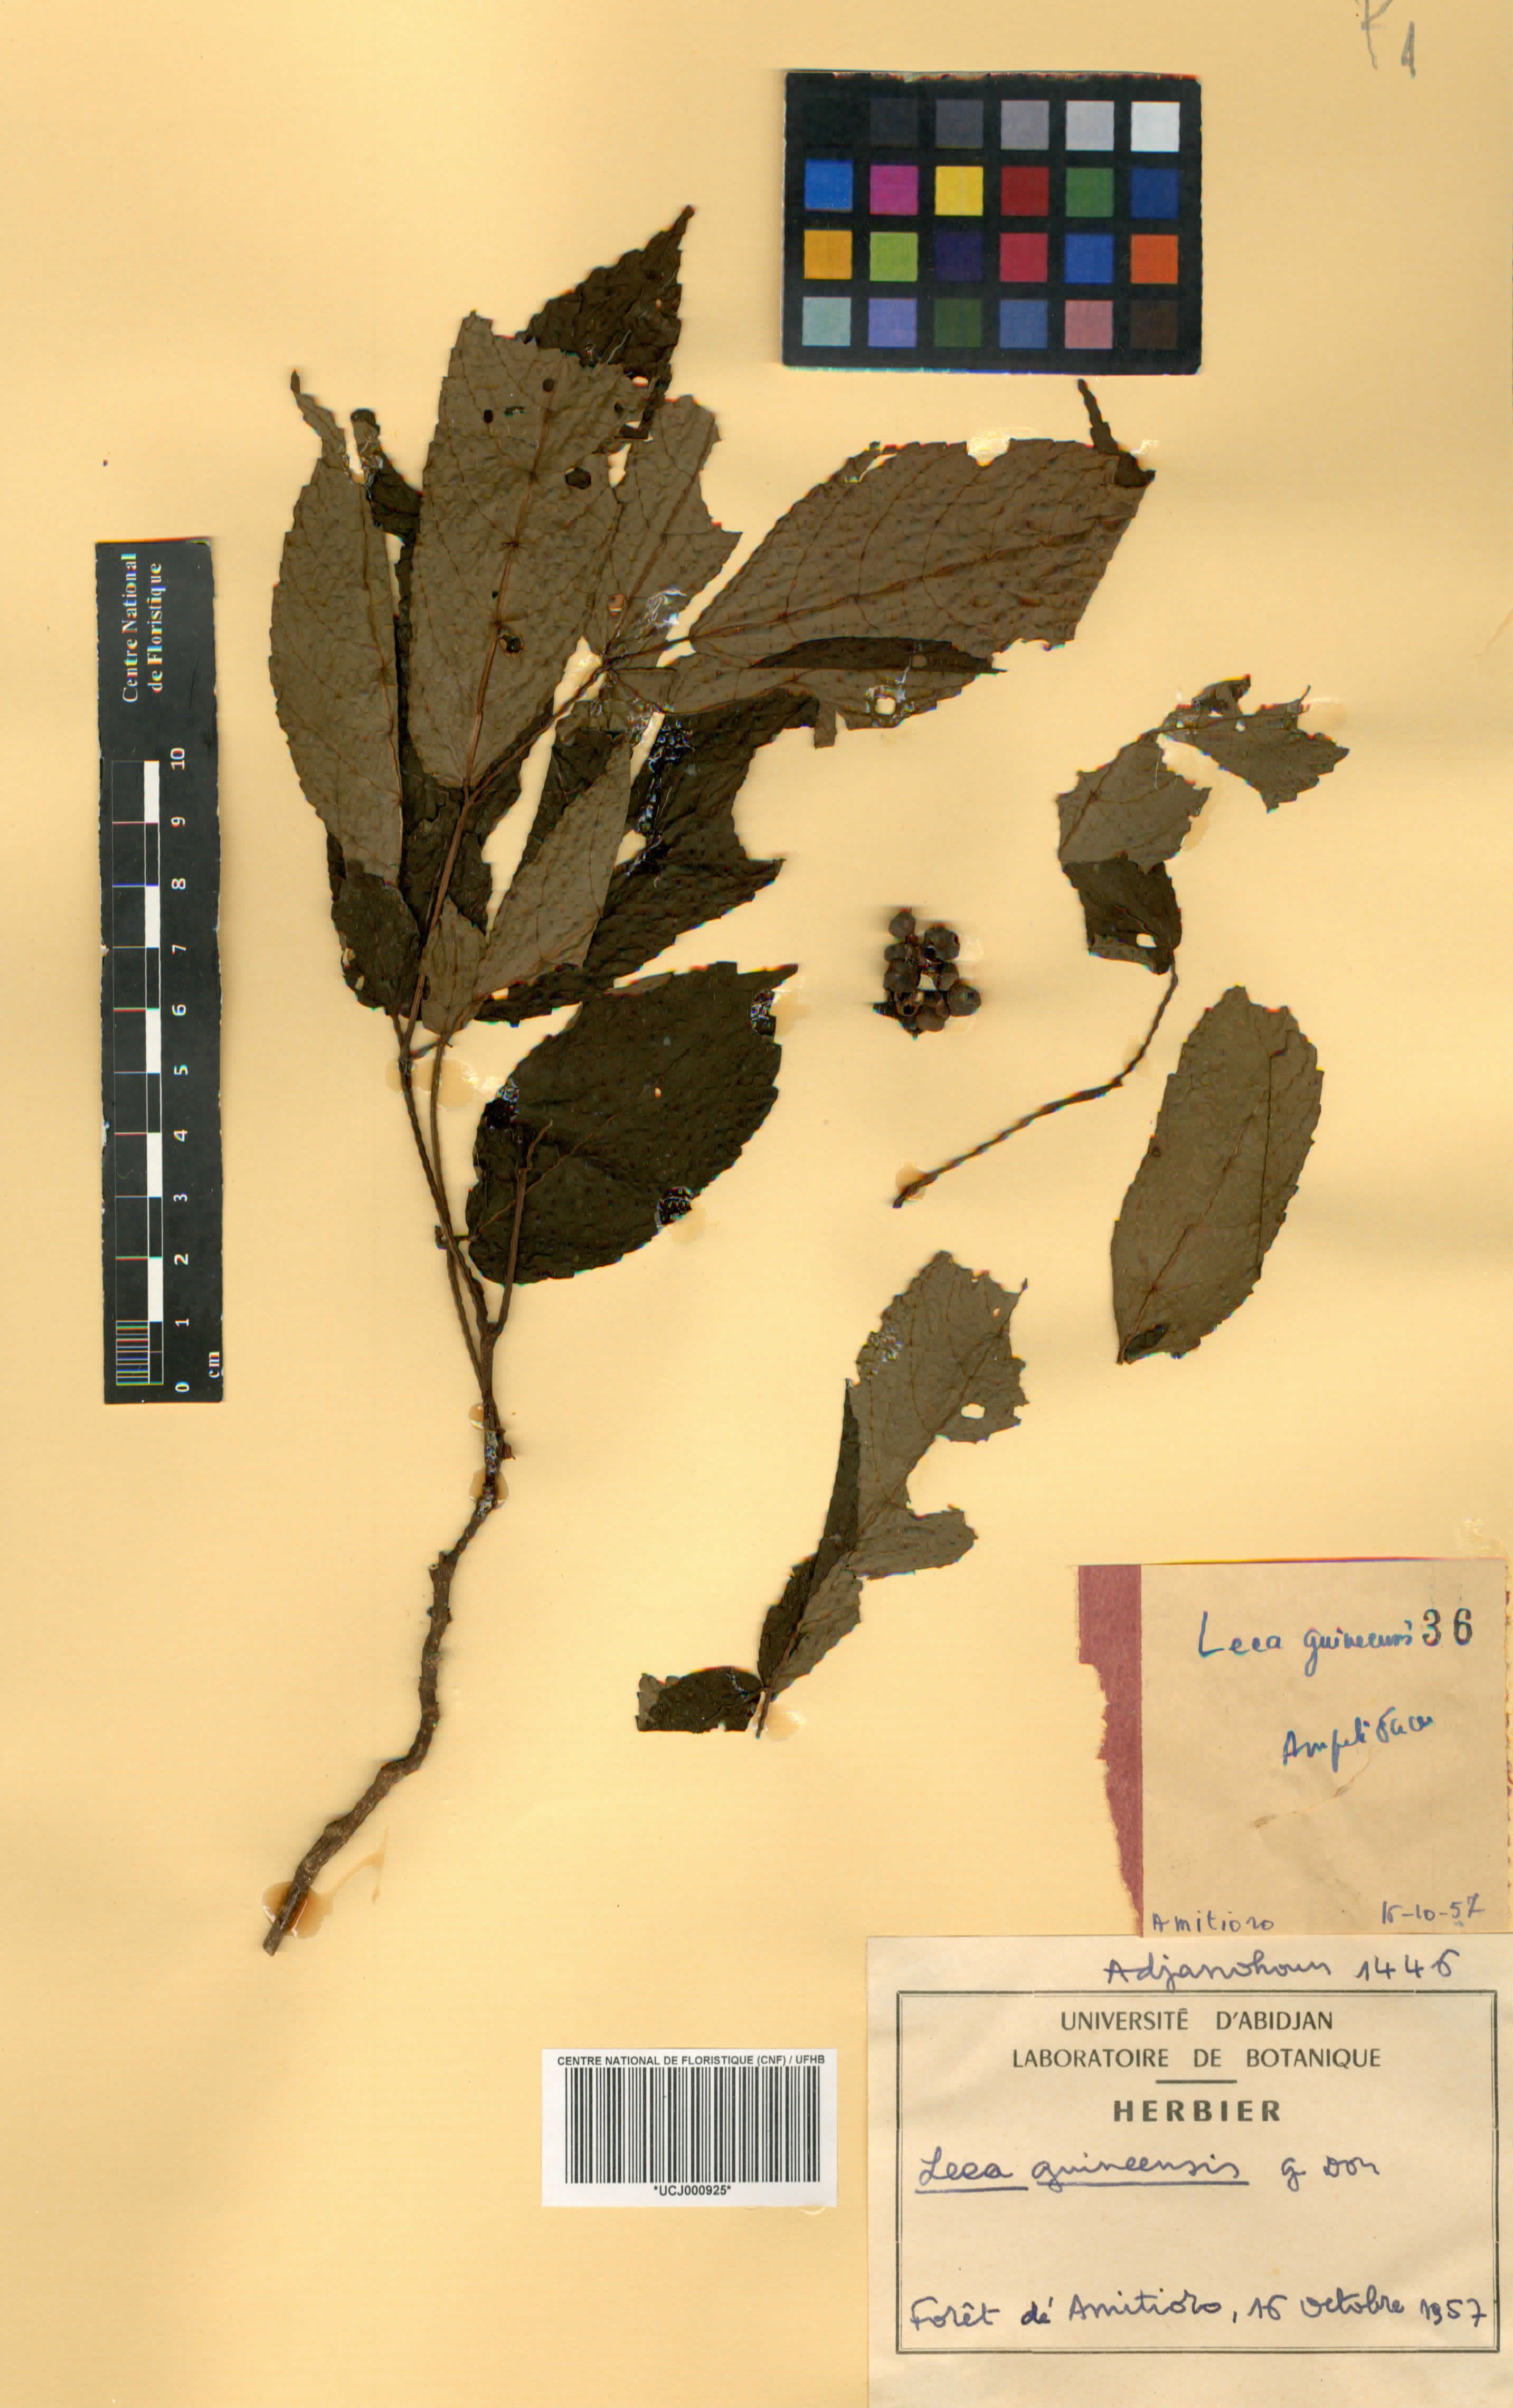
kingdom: Plantae
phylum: Tracheophyta
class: Magnoliopsida
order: Vitales
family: Vitaceae
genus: Leea
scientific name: Leea guineensis
